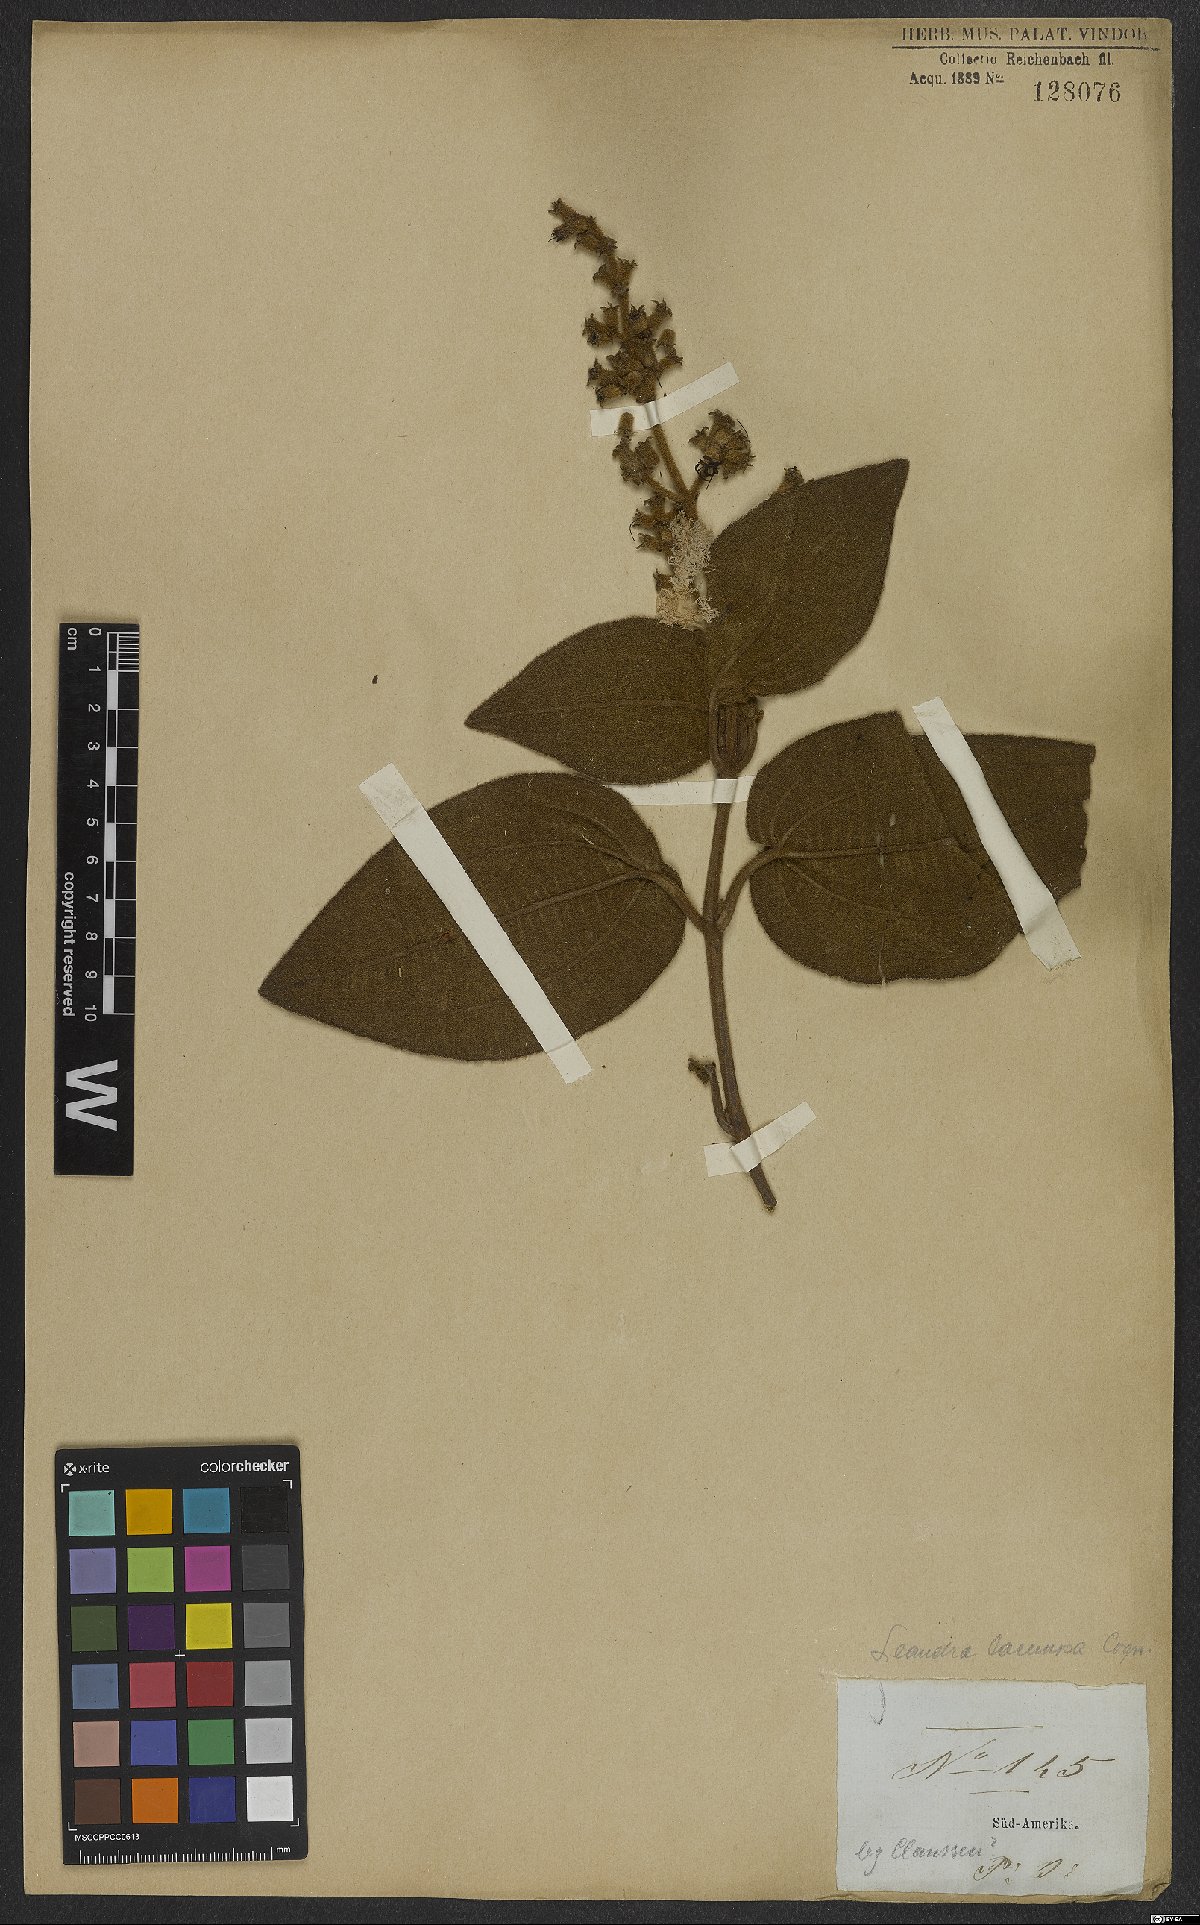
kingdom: Plantae
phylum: Tracheophyta
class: Magnoliopsida
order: Myrtales
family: Melastomataceae
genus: Miconia
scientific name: Miconia lacunosa
